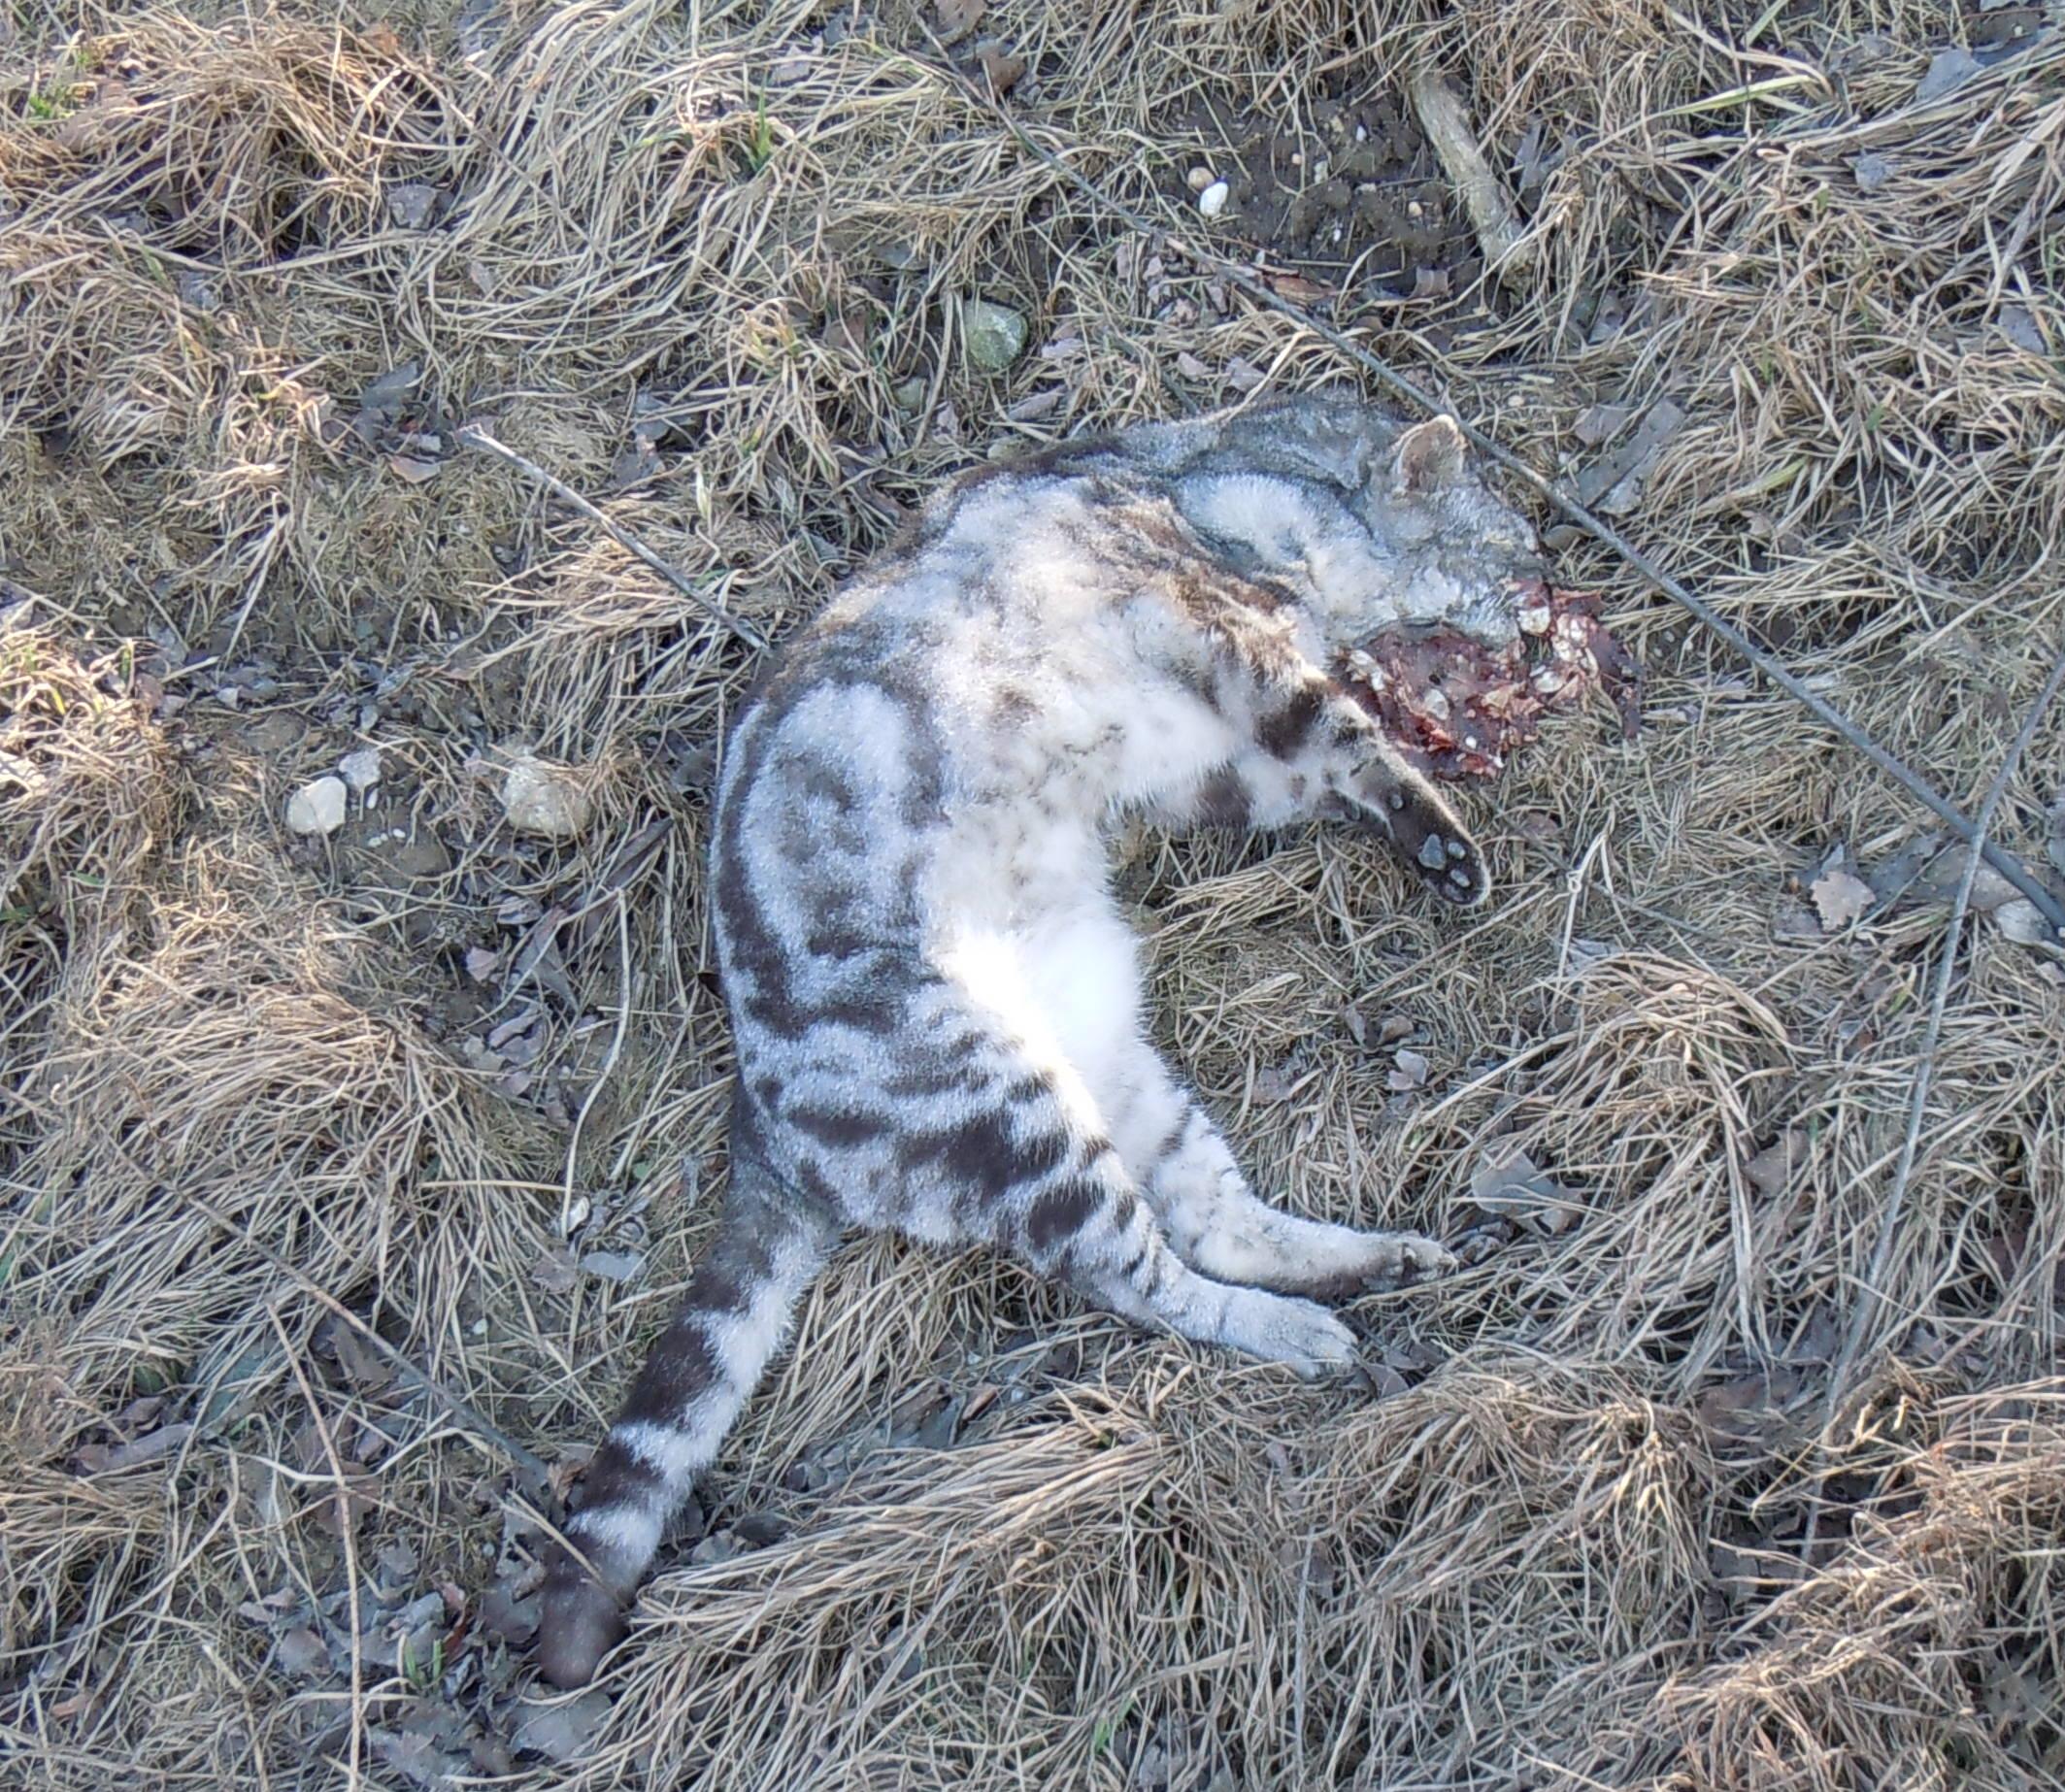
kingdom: Animalia
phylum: Chordata
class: Mammalia
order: Carnivora
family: Felidae
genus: Felis
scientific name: Felis catus
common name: Domestic cat
